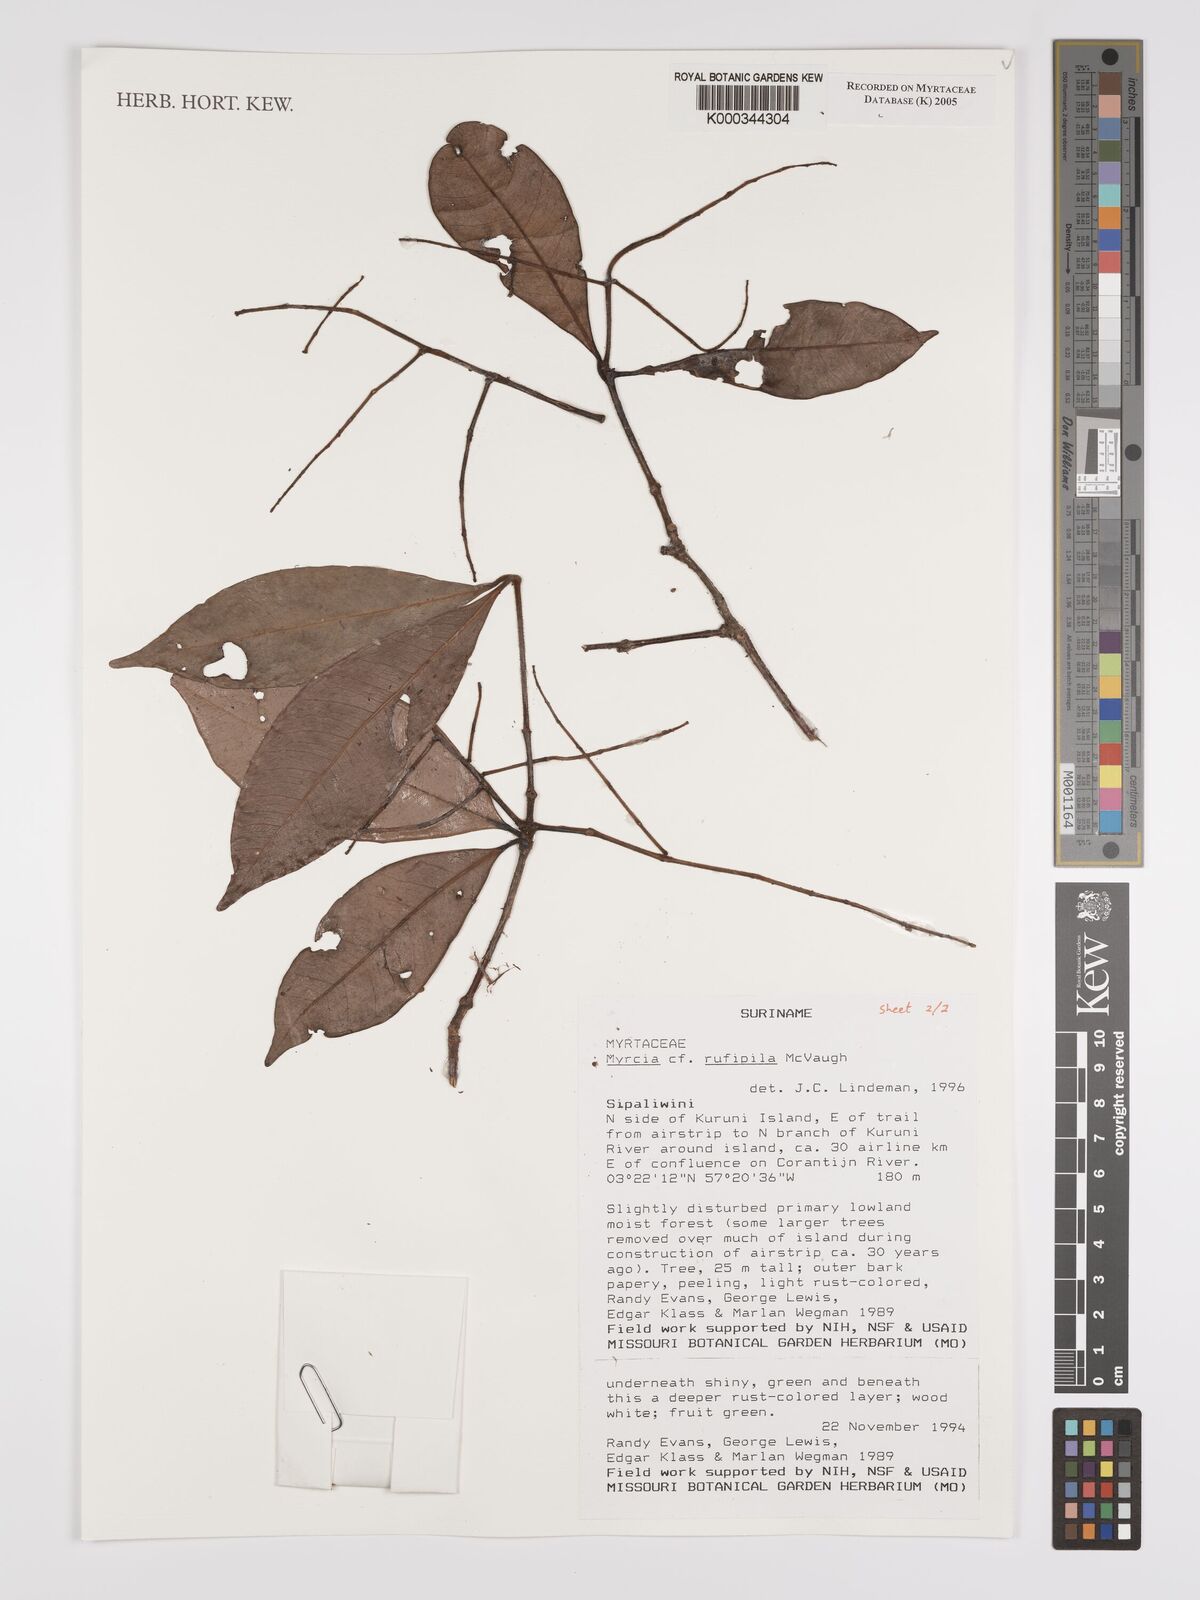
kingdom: Plantae
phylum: Tracheophyta
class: Magnoliopsida
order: Myrtales
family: Myrtaceae
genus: Myrcia
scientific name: Myrcia rufipila
